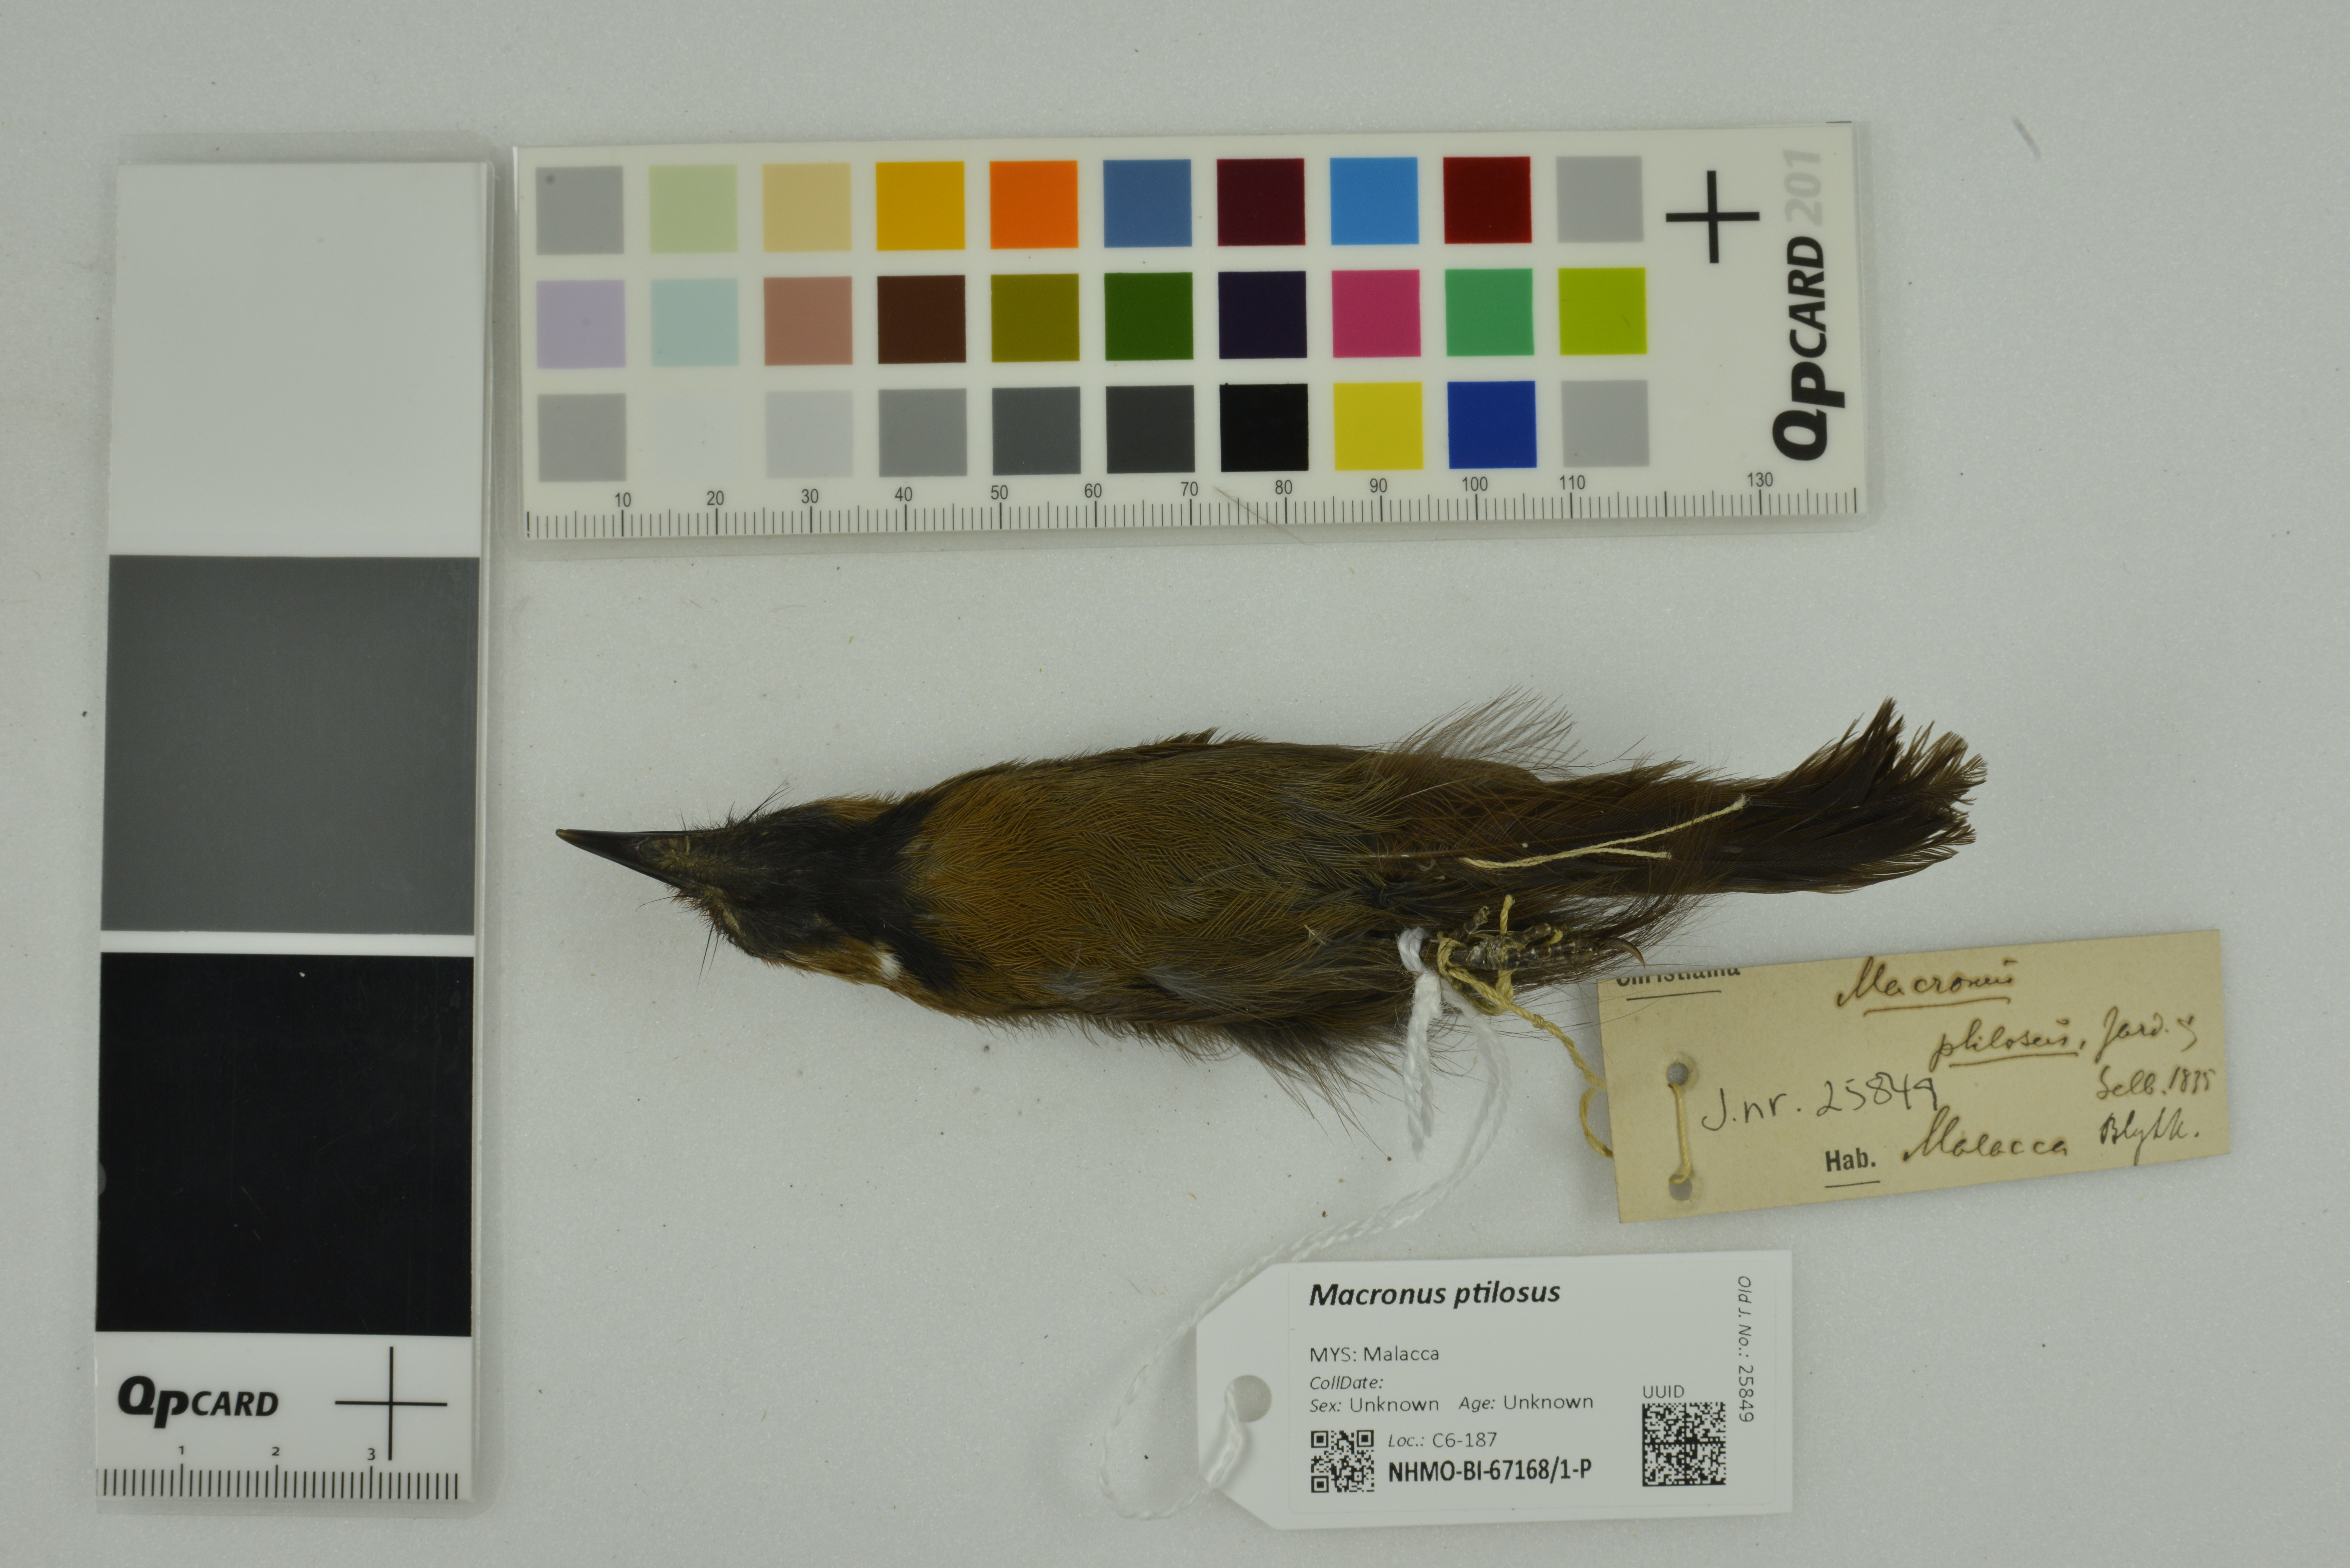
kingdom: Animalia
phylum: Chordata
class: Aves
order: Passeriformes
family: Timaliidae
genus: Macronus
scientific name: Macronus ptilosus
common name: Fluffy-backed tit-babbler
